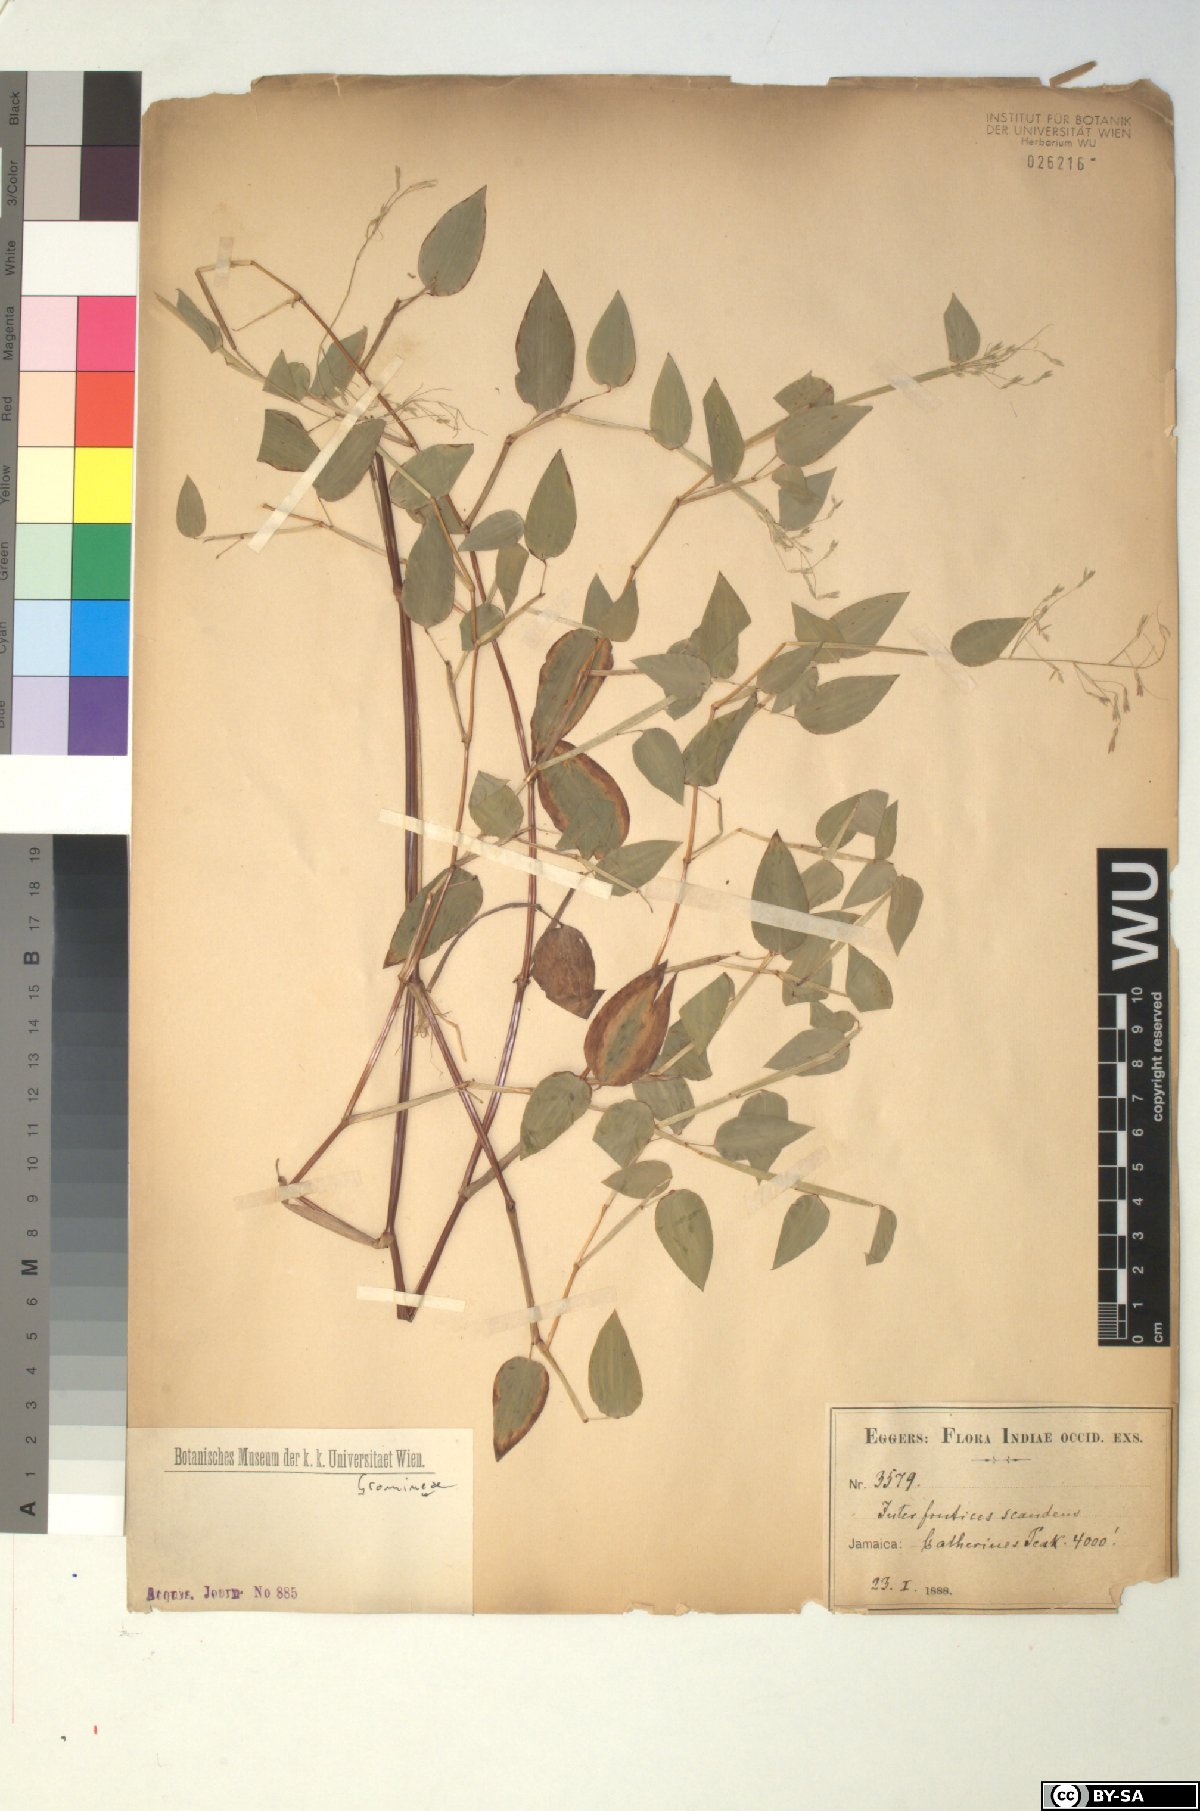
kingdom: Plantae
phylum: Tracheophyta
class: Liliopsida
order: Poales
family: Poaceae
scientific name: Poaceae
